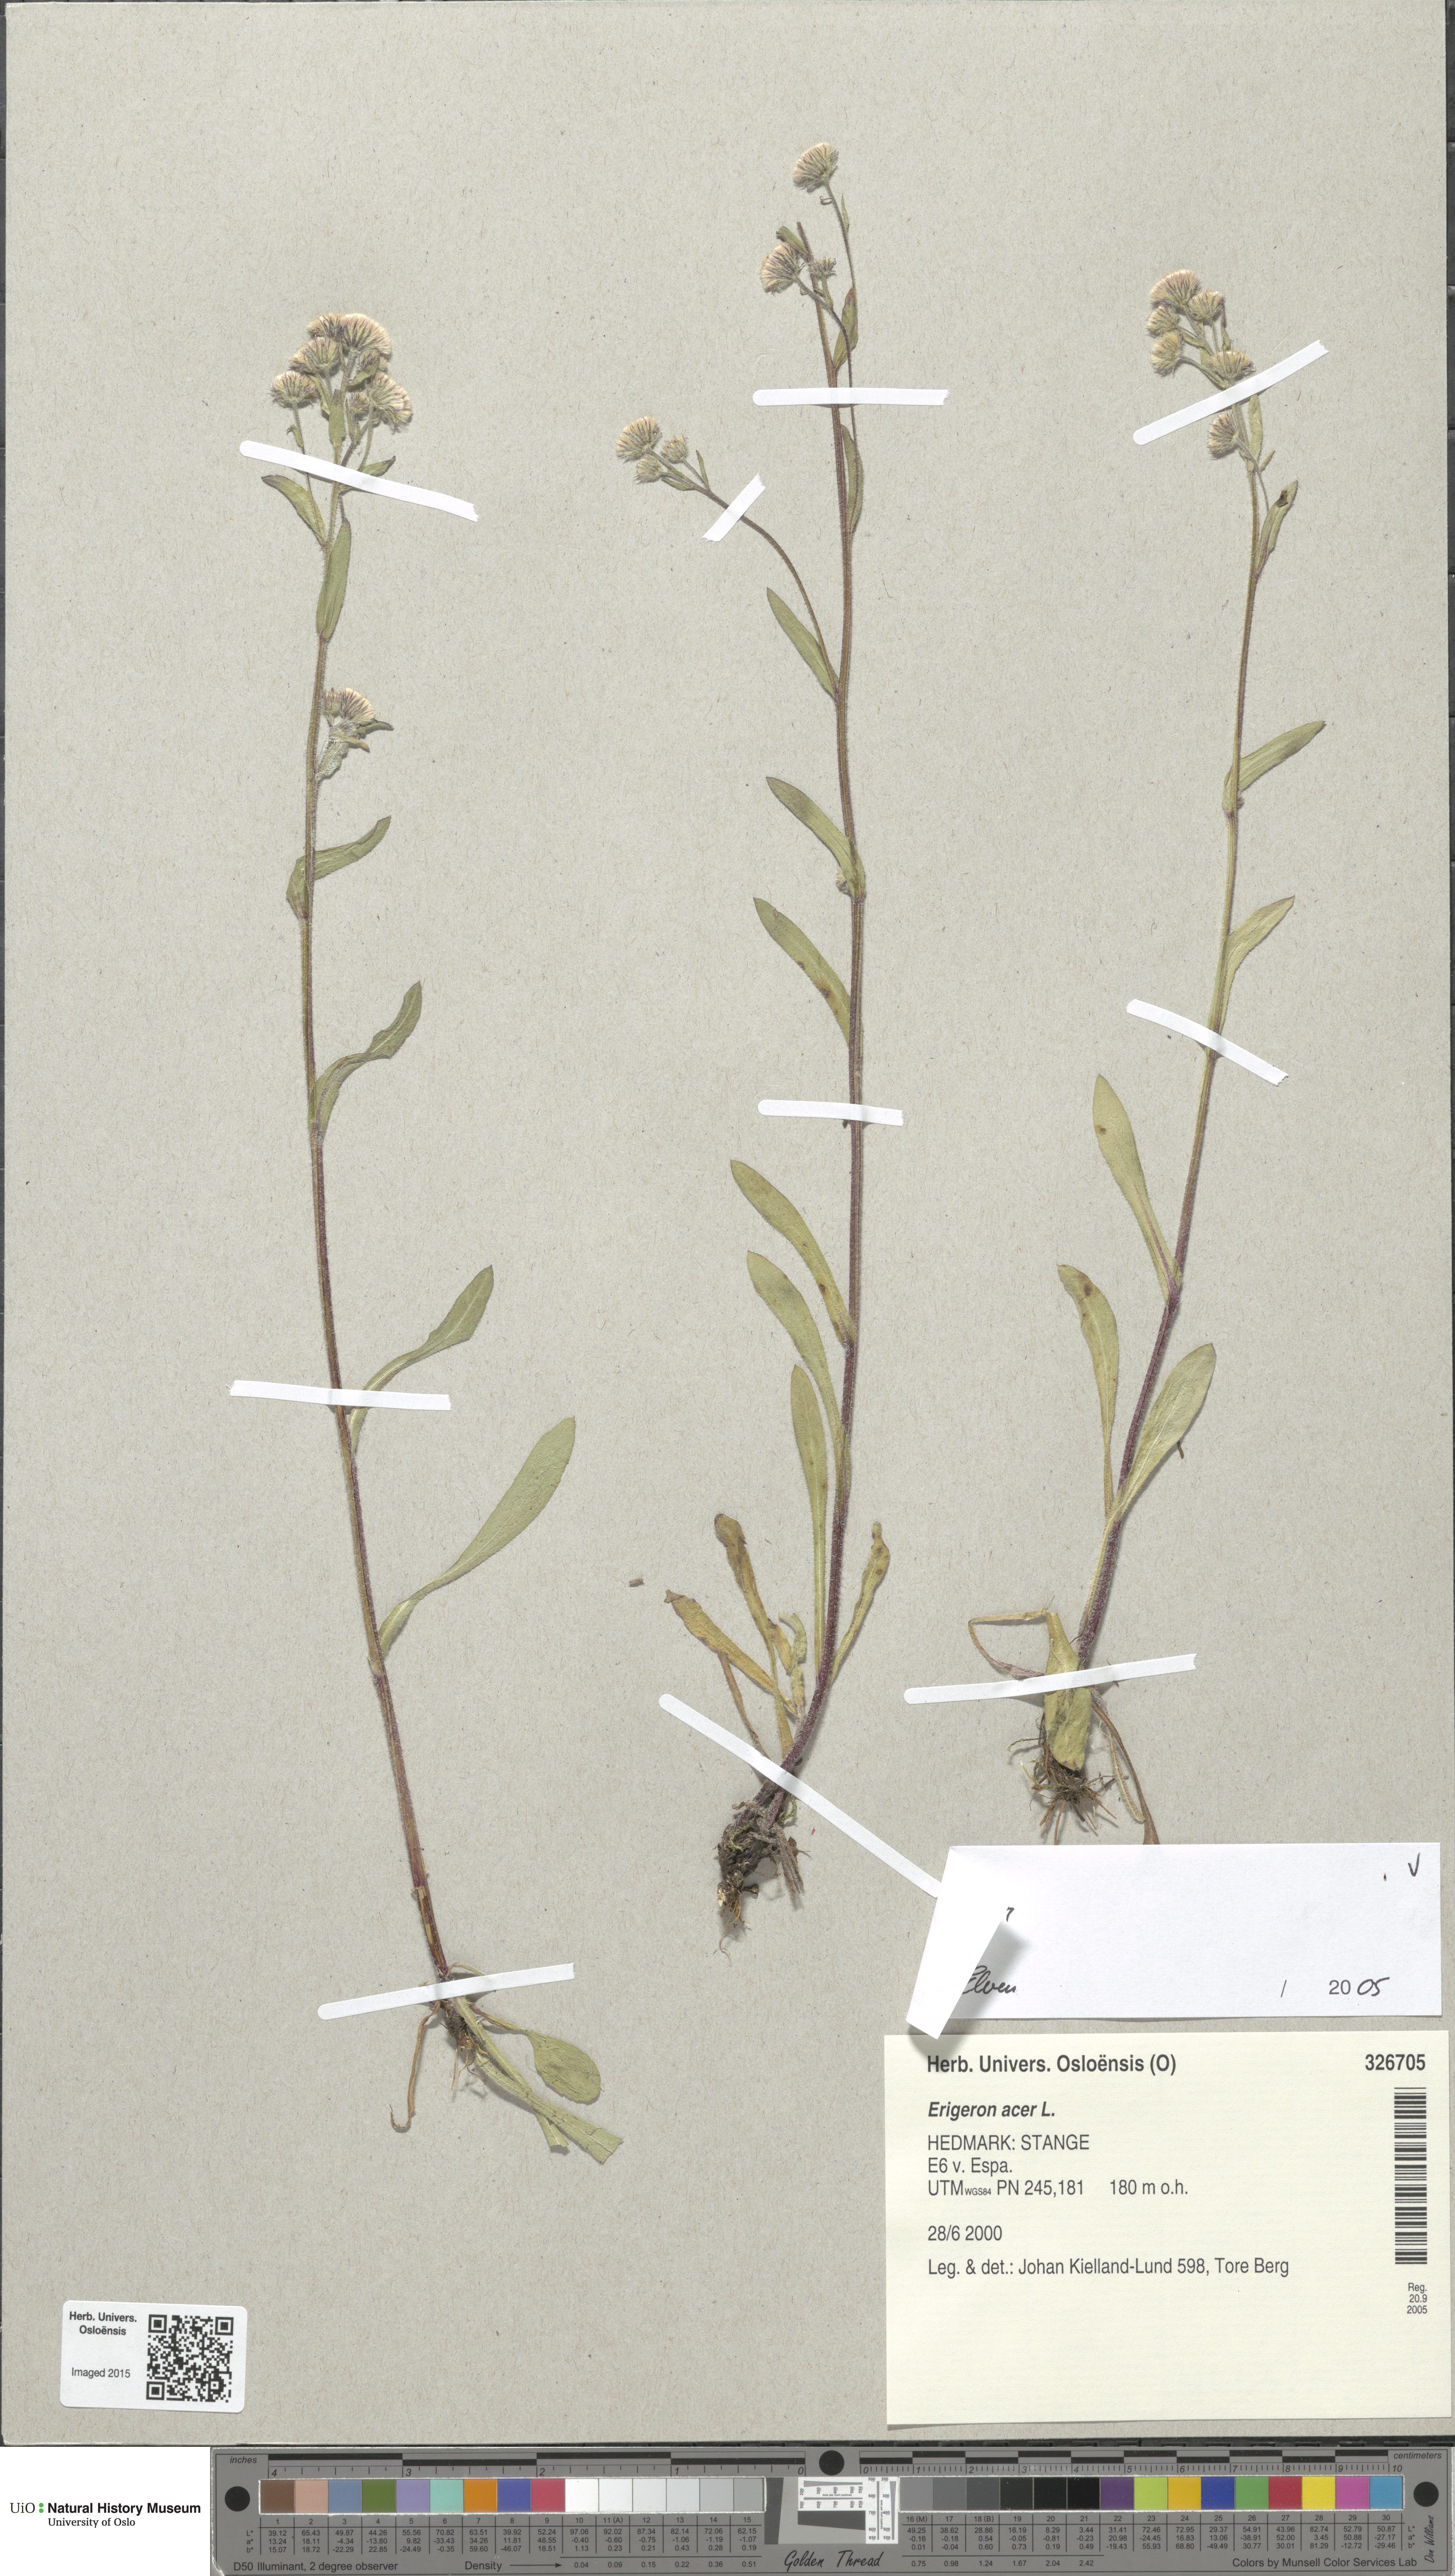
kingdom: Plantae
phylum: Tracheophyta
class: Magnoliopsida
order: Asterales
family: Asteraceae
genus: Erigeron
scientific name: Erigeron acris
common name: Blue fleabane
